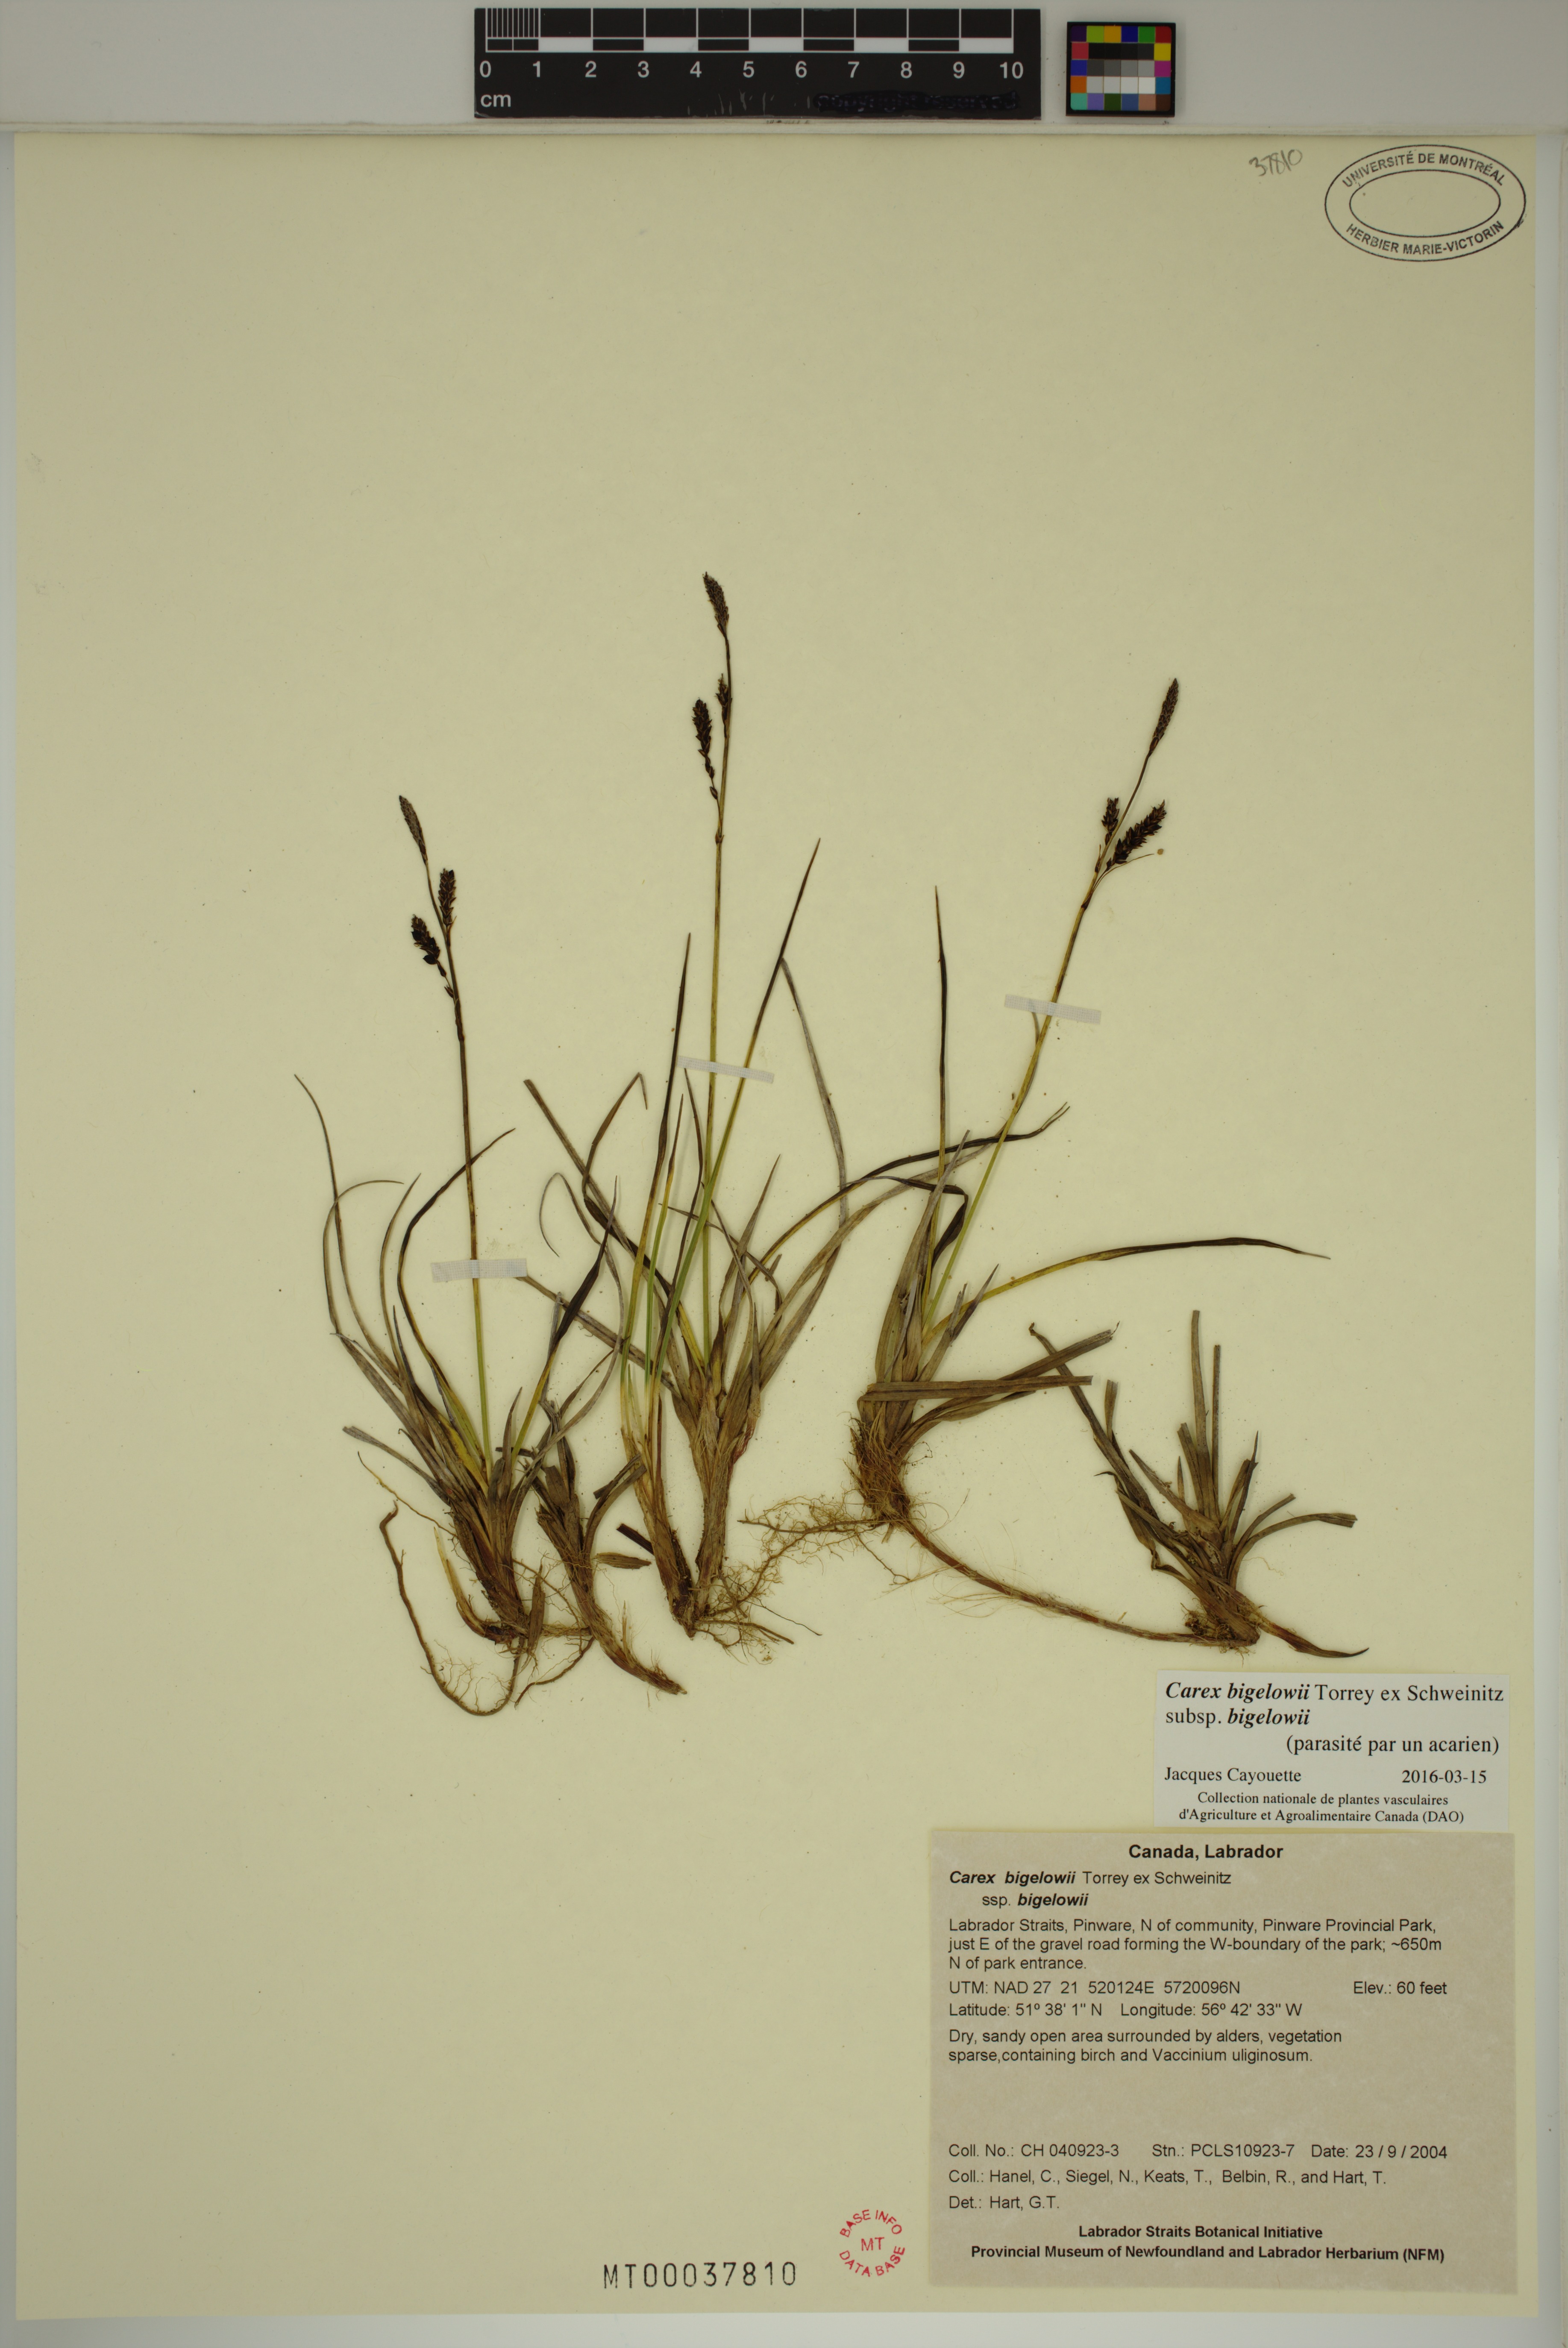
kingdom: Plantae
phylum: Tracheophyta
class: Liliopsida
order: Poales
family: Cyperaceae
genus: Carex
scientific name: Carex bigelowii
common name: Stiff sedge
